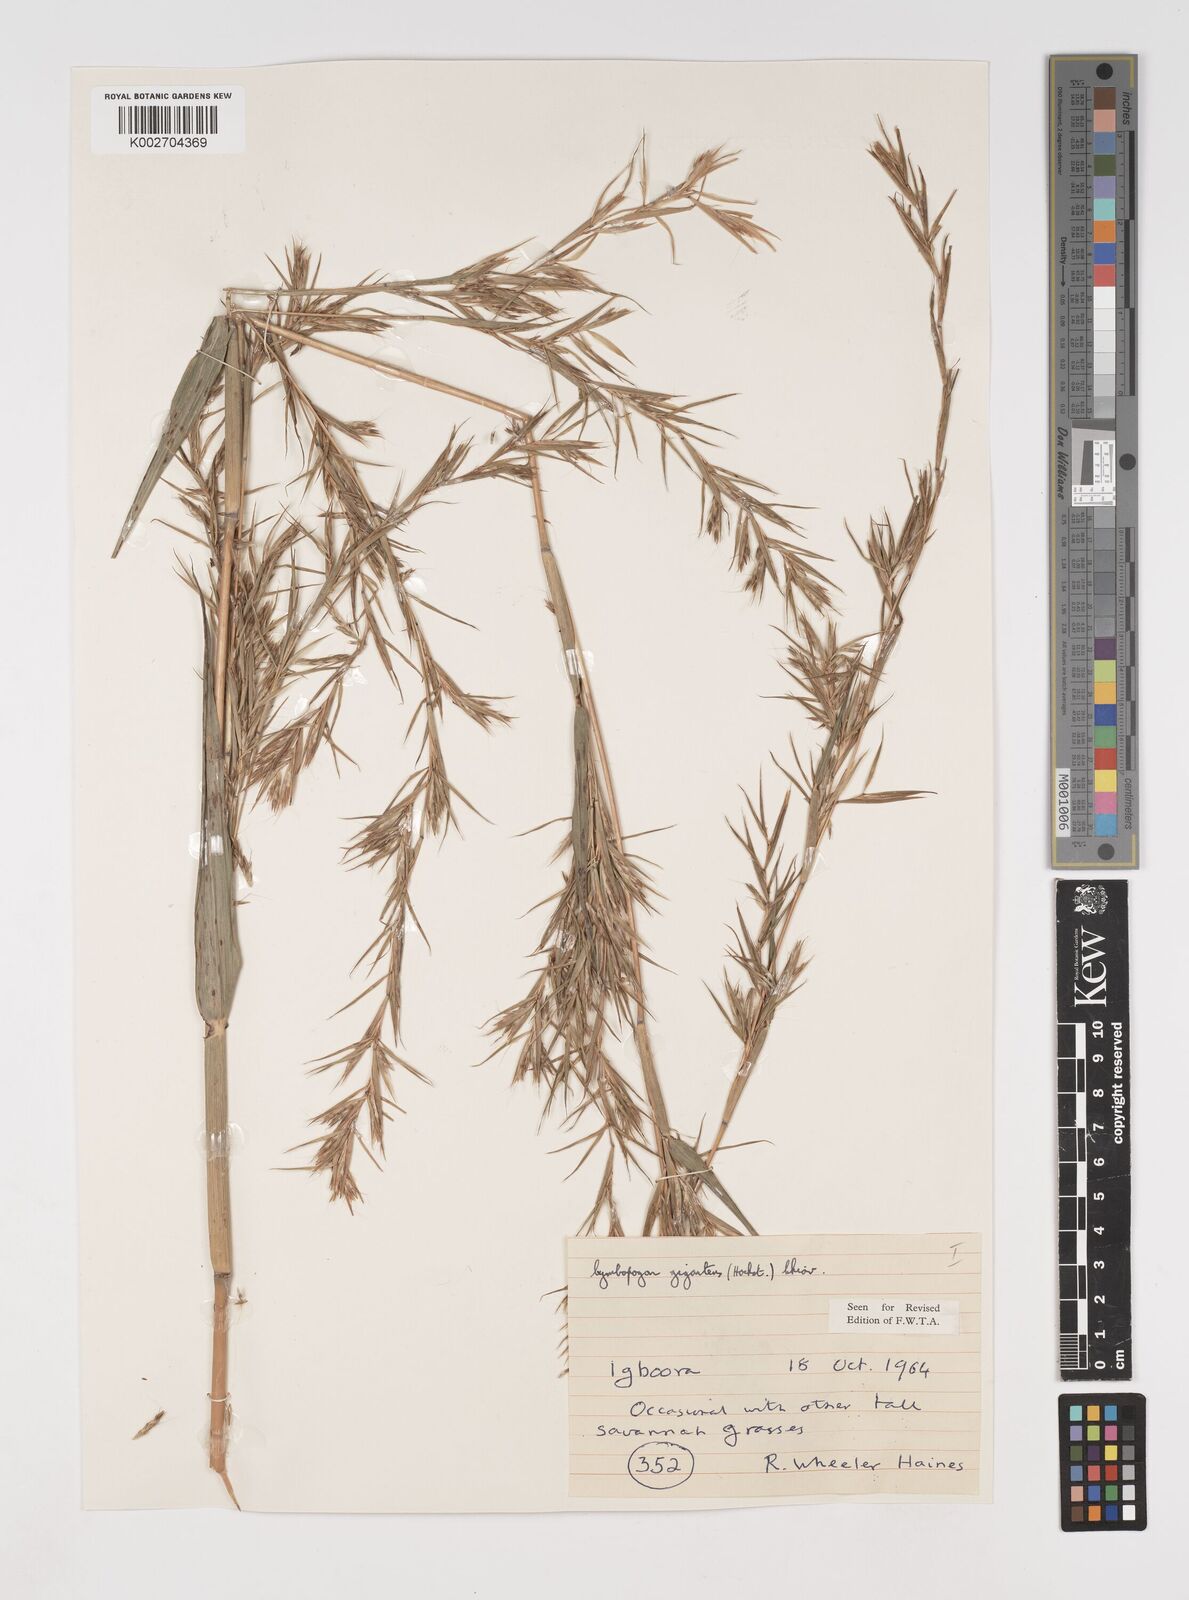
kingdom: Plantae
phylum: Tracheophyta
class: Liliopsida
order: Poales
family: Poaceae
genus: Cymbopogon
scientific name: Cymbopogon giganteus
